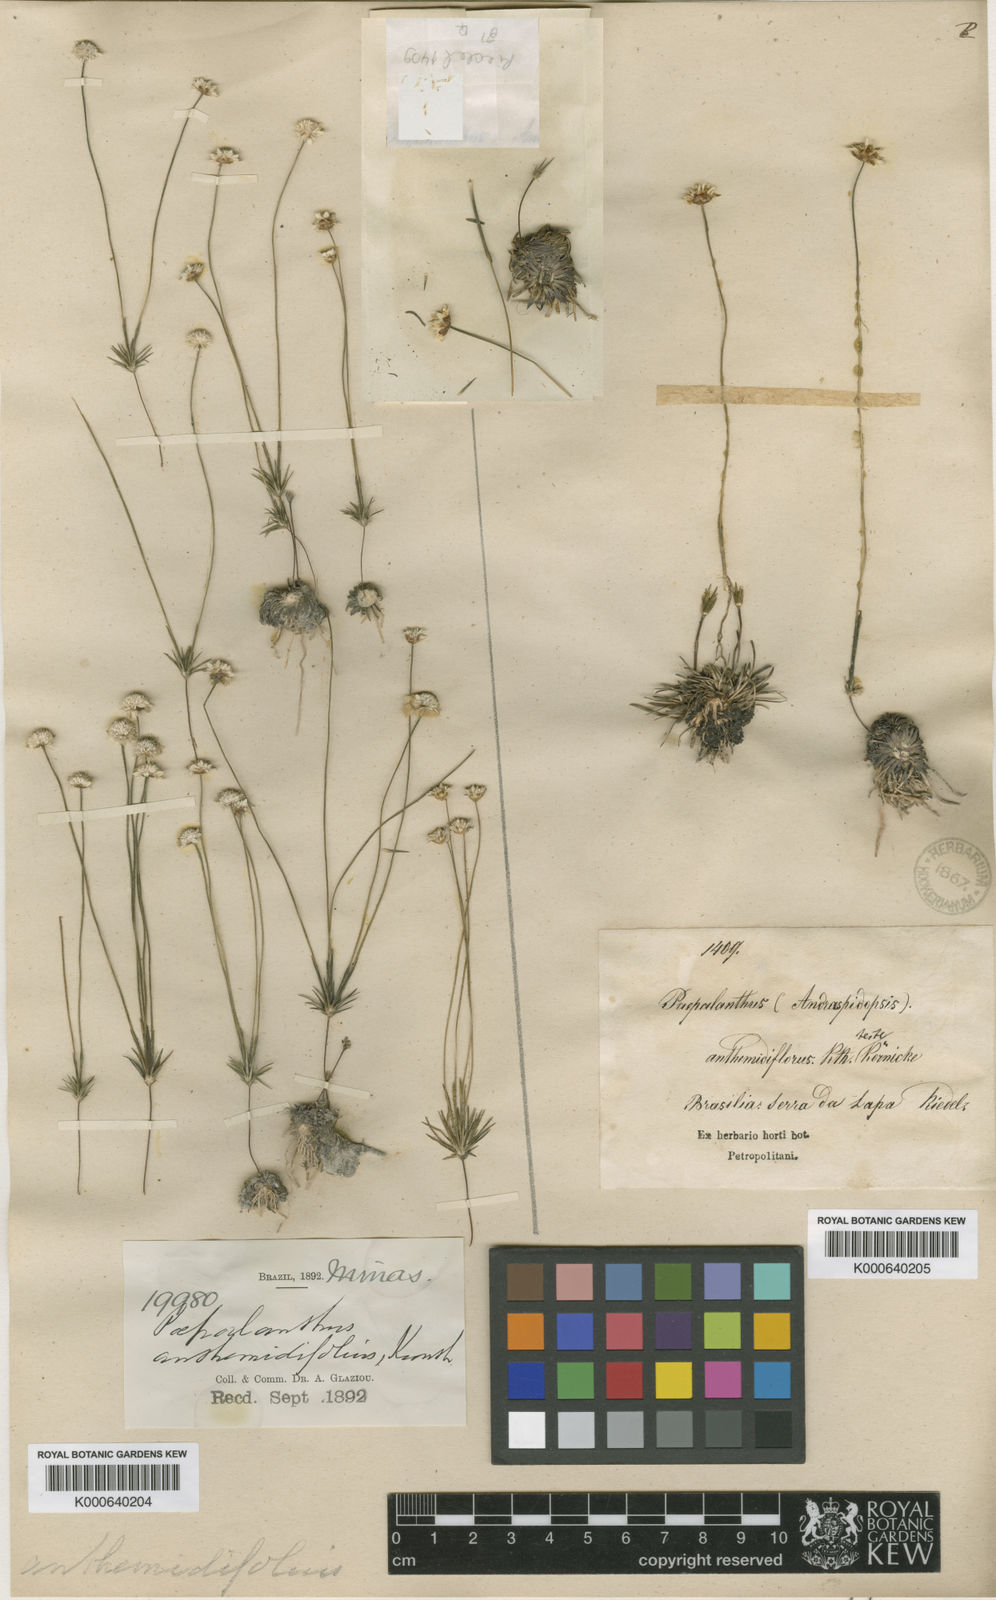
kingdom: Plantae
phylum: Tracheophyta
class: Liliopsida
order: Poales
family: Eriocaulaceae
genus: Syngonanthus
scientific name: Syngonanthus anthemidiflorus
